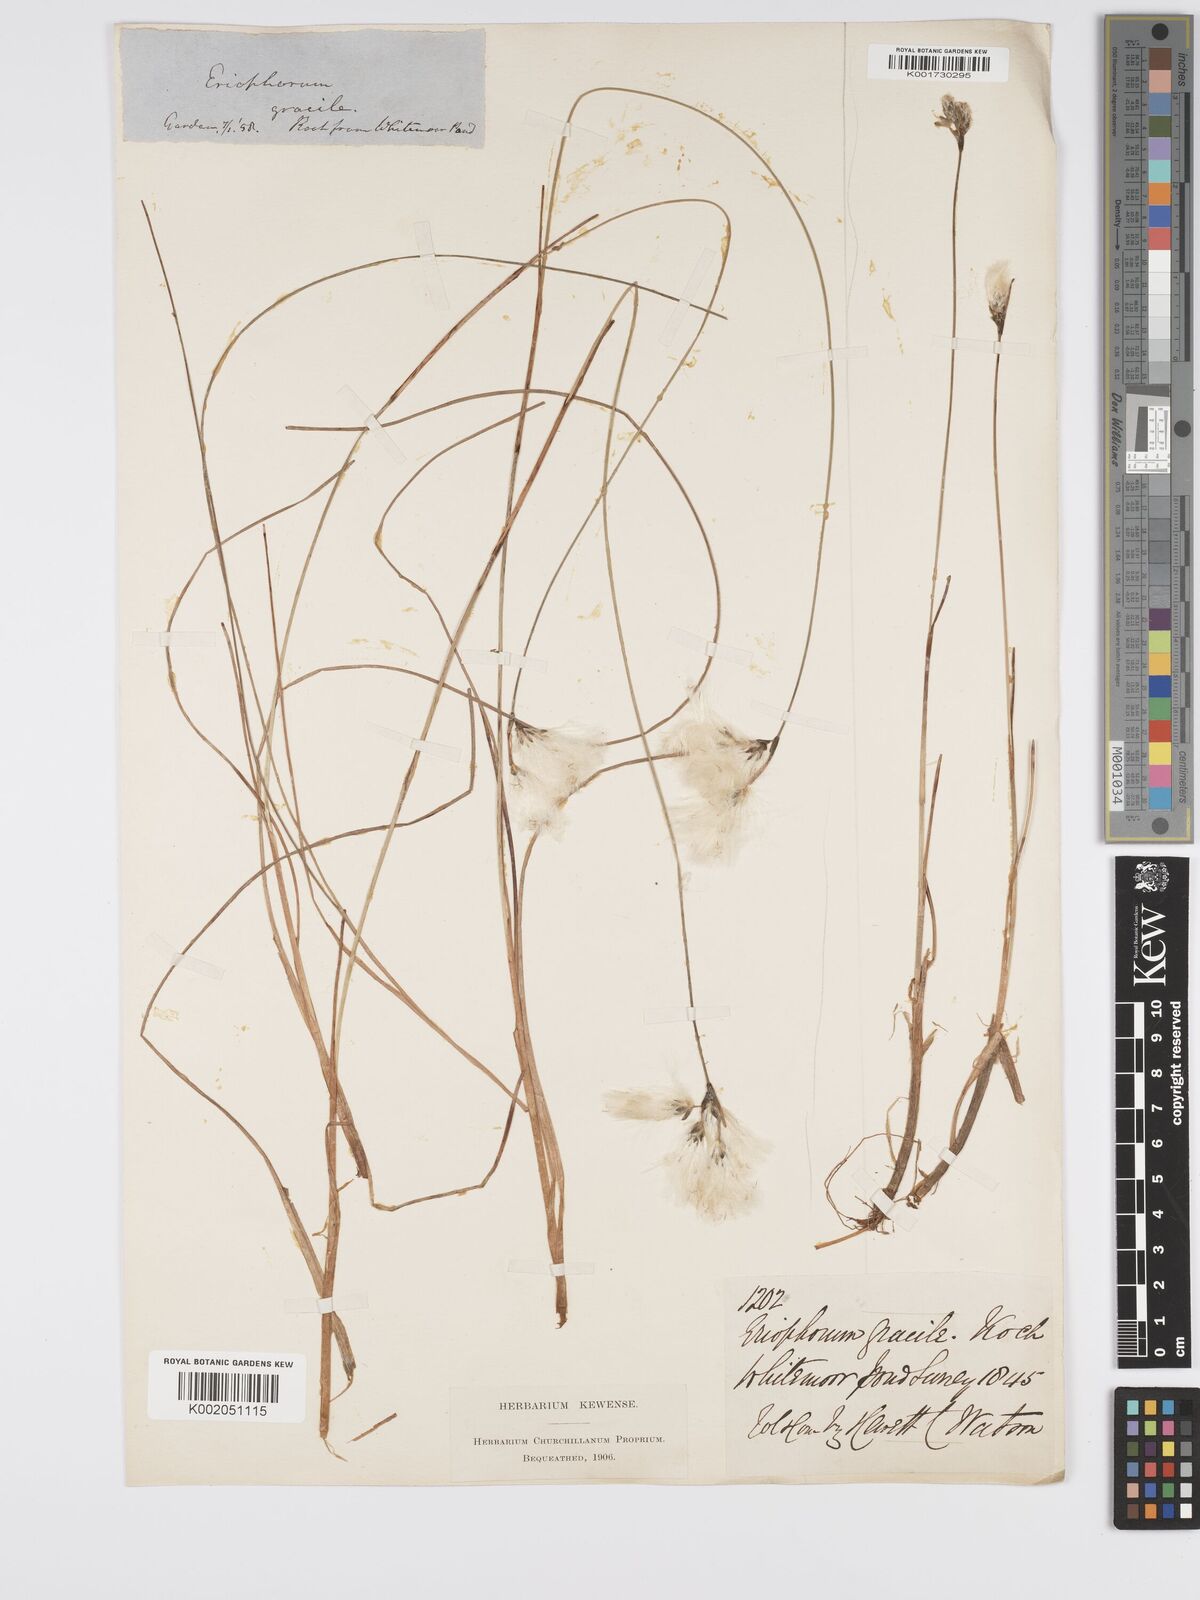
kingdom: Plantae
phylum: Tracheophyta
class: Liliopsida
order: Poales
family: Cyperaceae
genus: Eriophorum
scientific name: Eriophorum gracile
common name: Slender cottongrass
